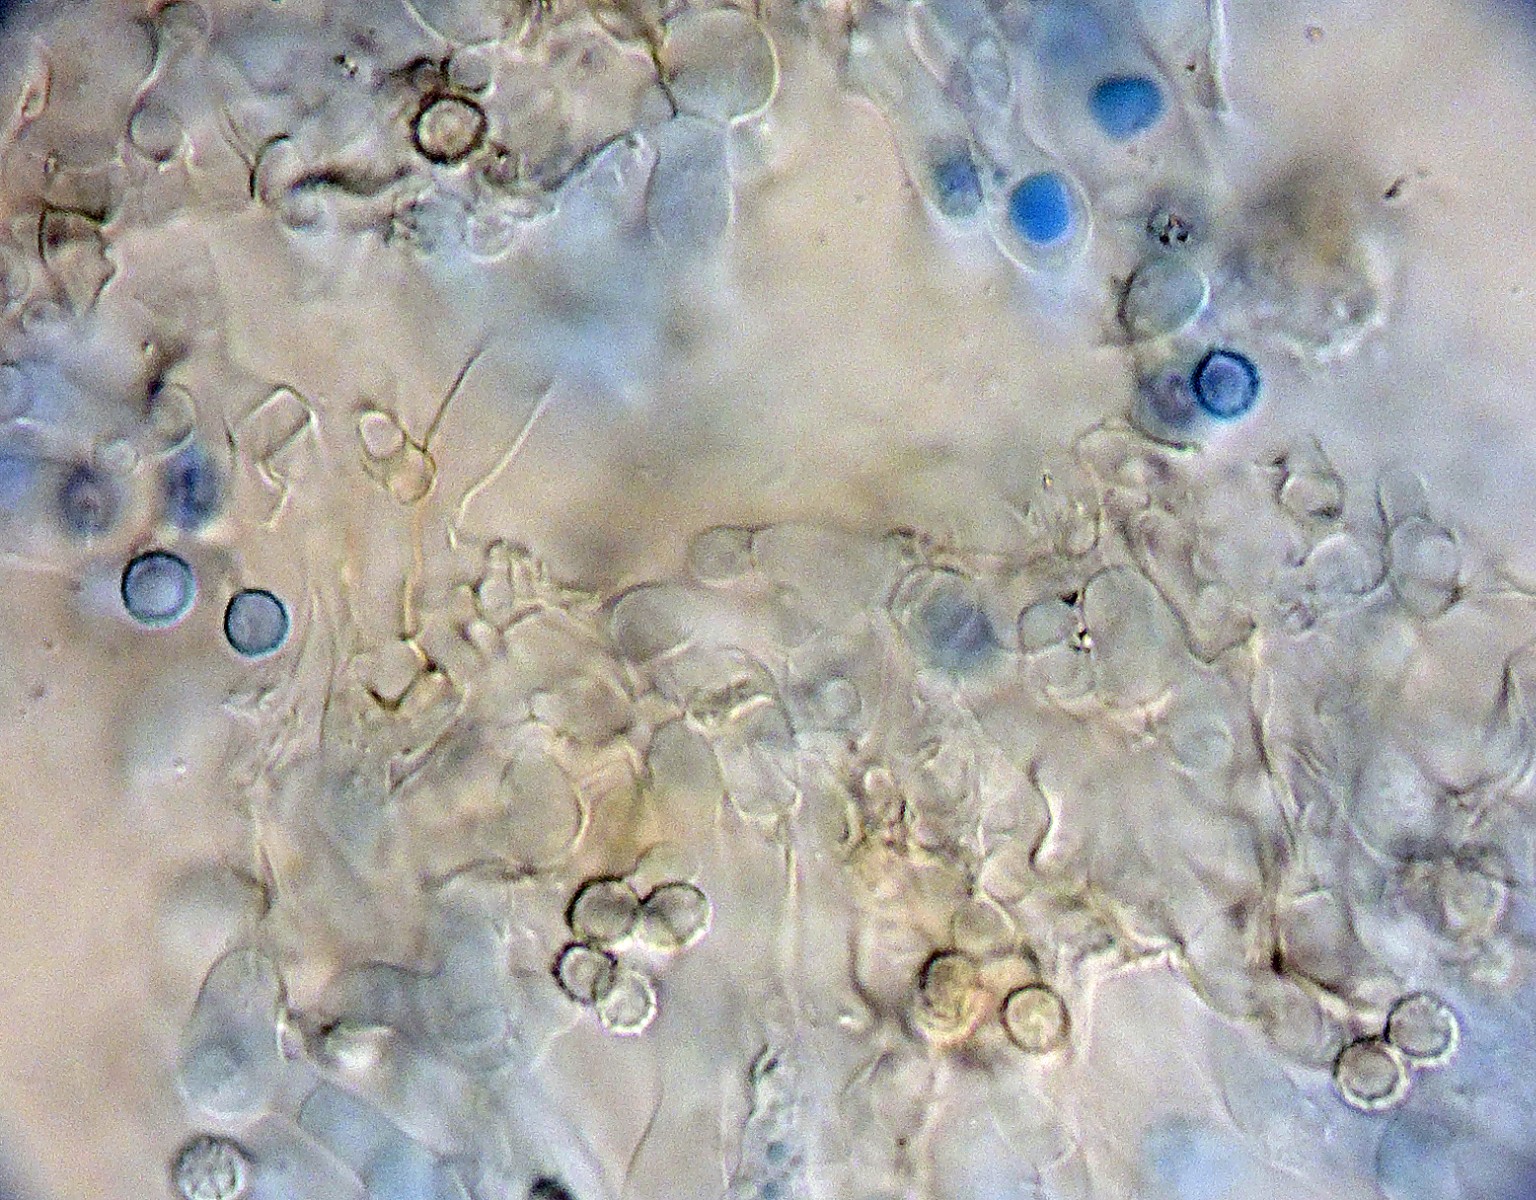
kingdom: Fungi
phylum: Basidiomycota
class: Agaricomycetes
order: Agaricales
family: Stephanosporaceae
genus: Lindtneria
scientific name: Lindtneria chordulata
